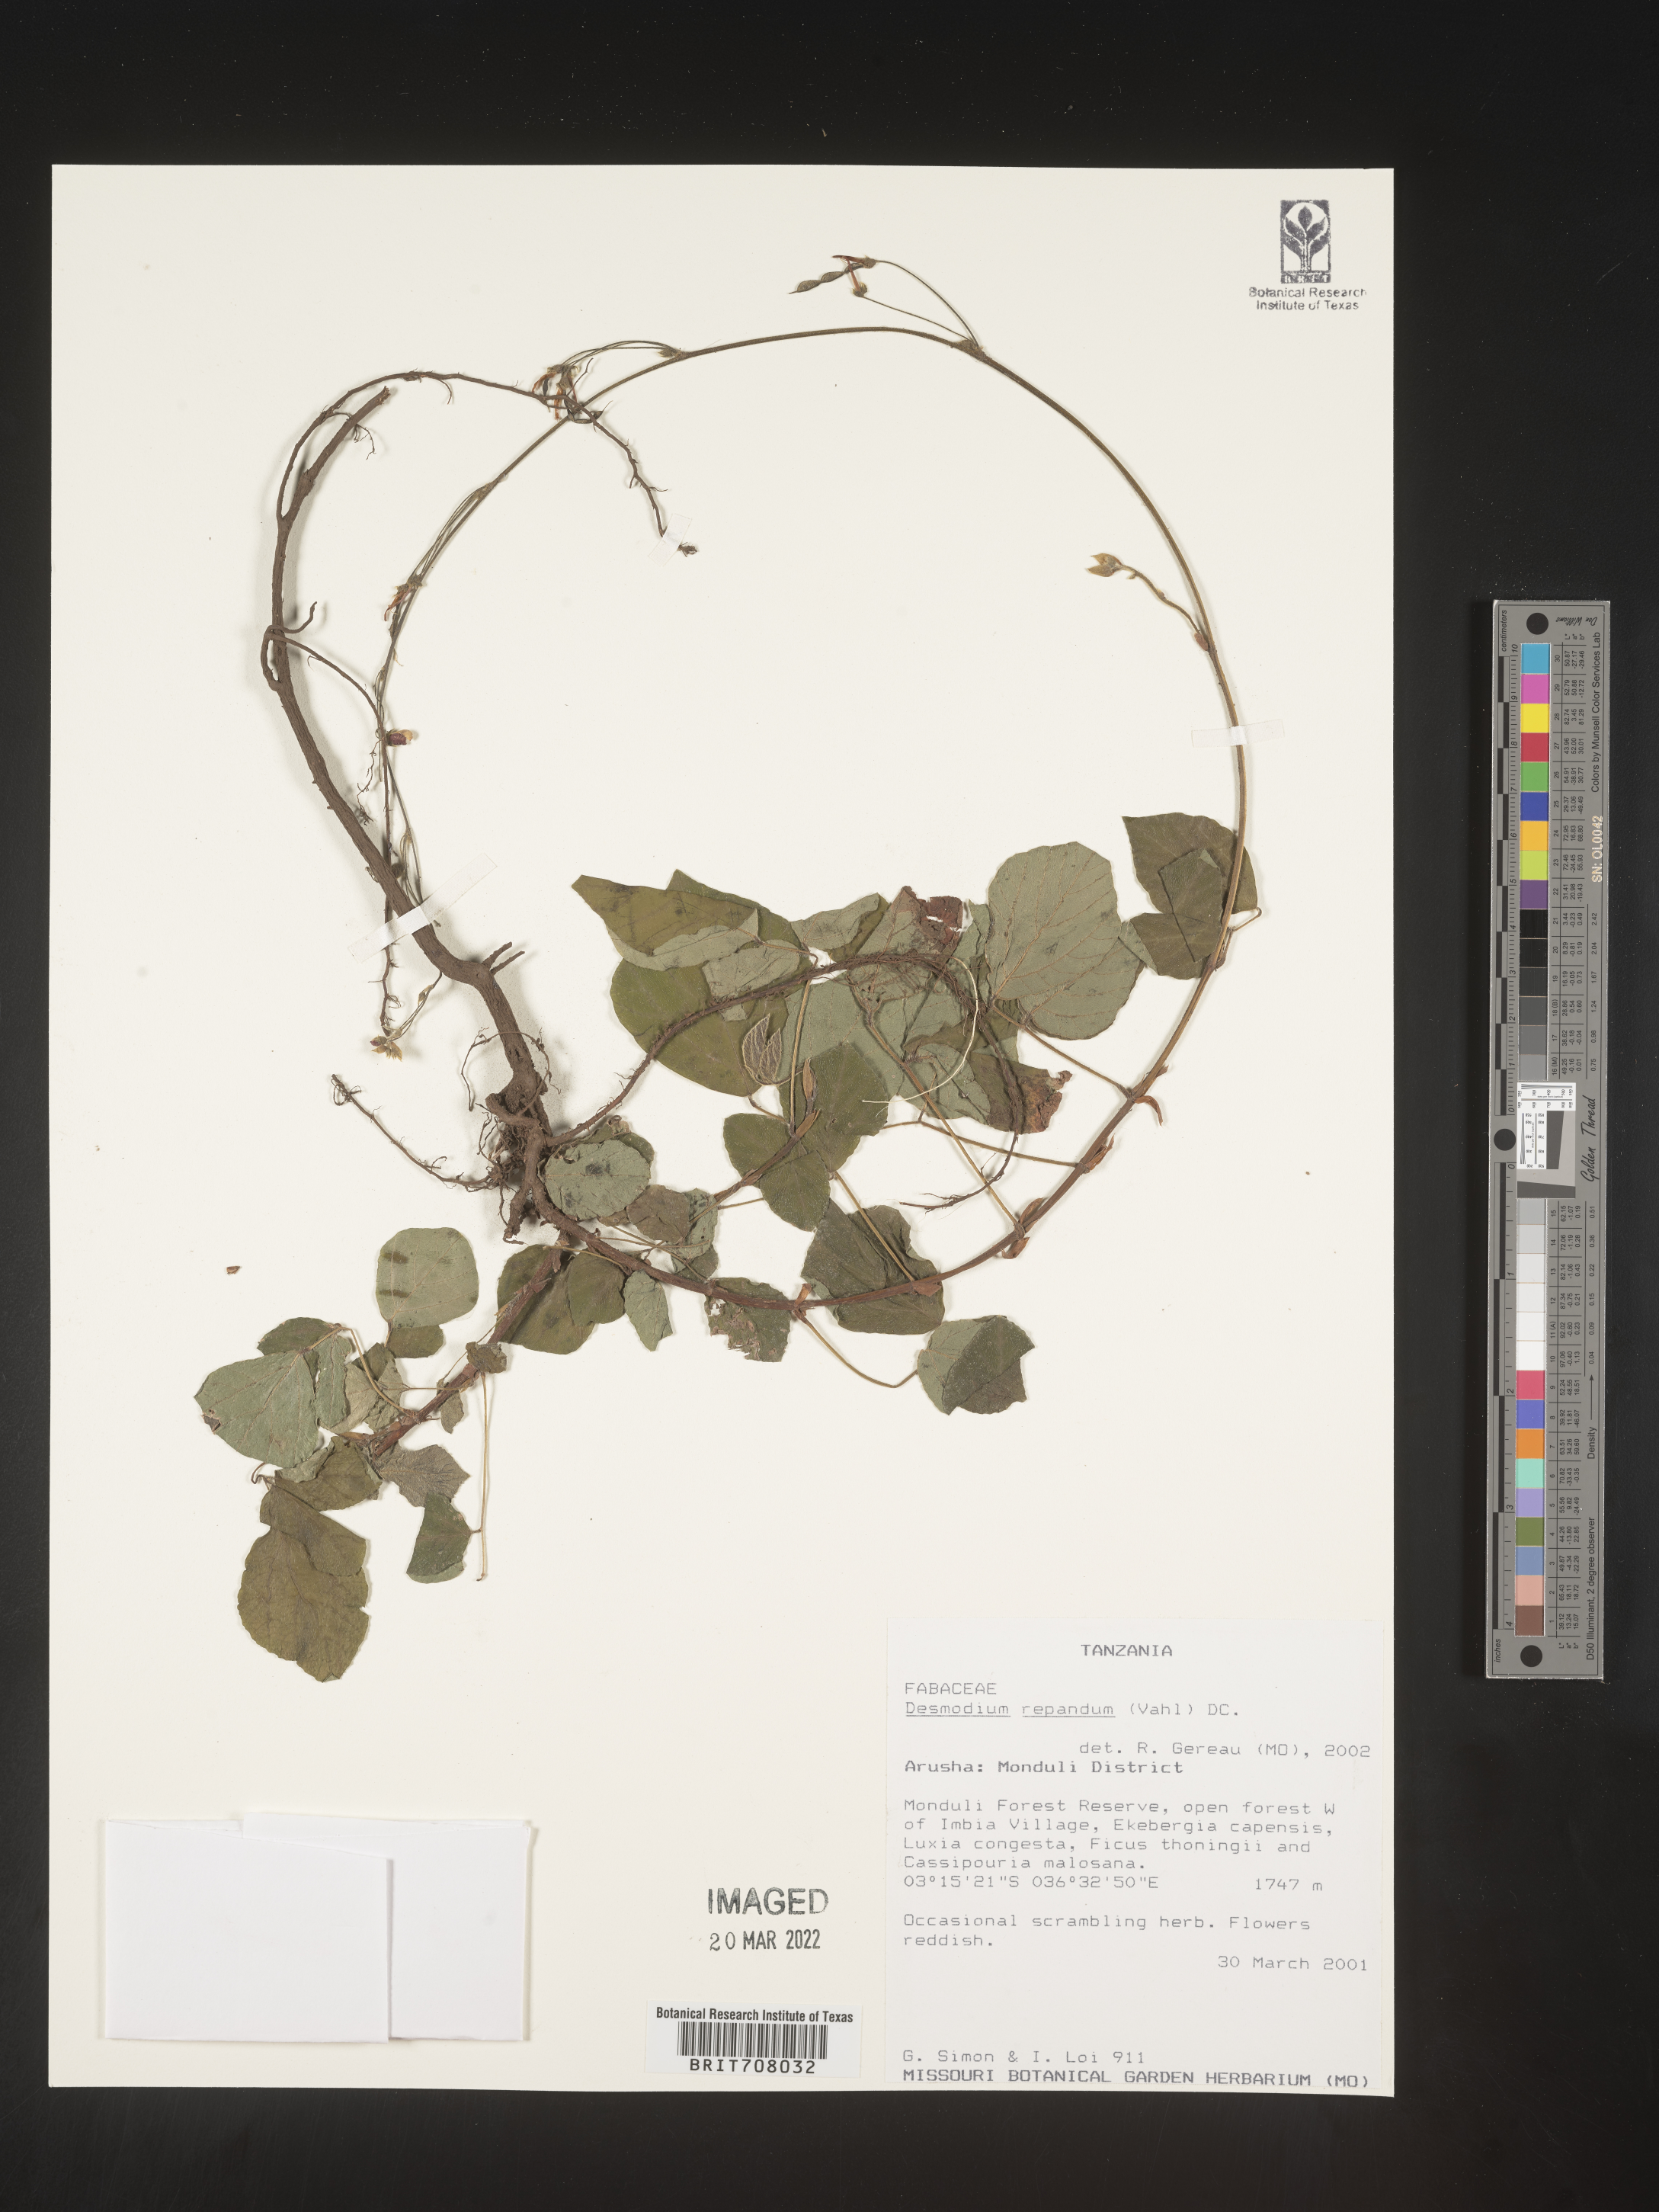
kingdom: Plantae
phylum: Tracheophyta
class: Magnoliopsida
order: Fabales
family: Fabaceae
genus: Desmodium
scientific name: Desmodium
